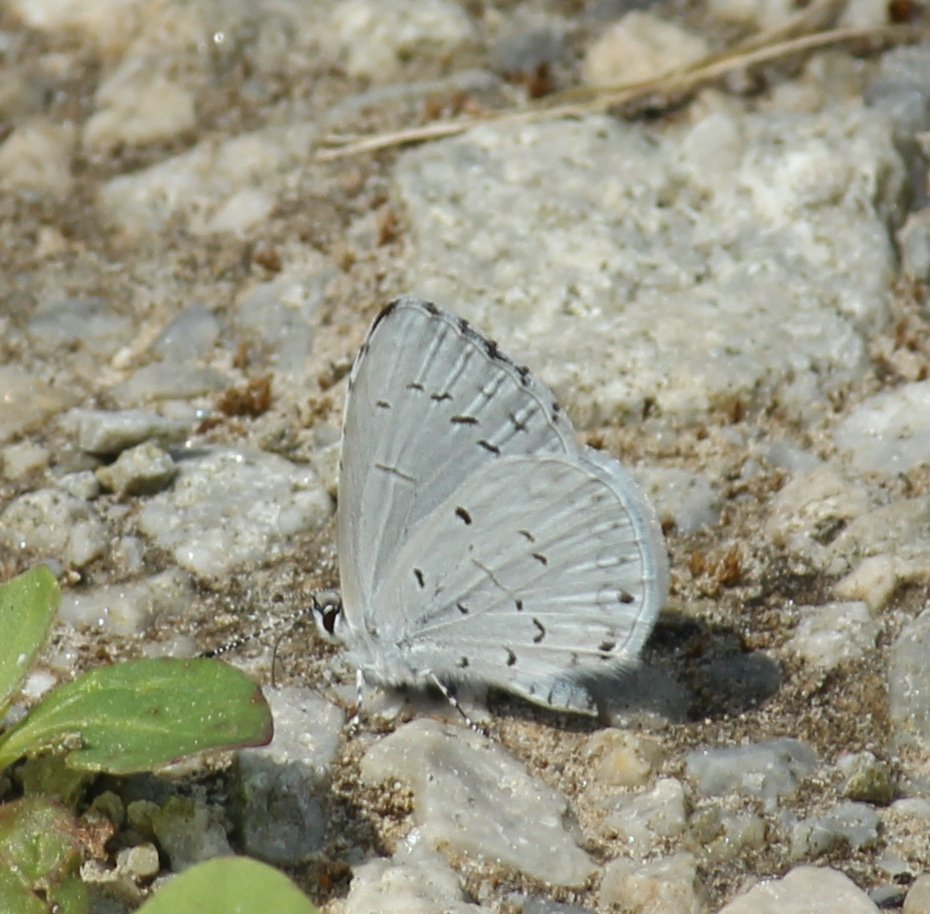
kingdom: Animalia
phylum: Arthropoda
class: Insecta
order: Lepidoptera
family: Lycaenidae
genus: Celastrina
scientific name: Celastrina
